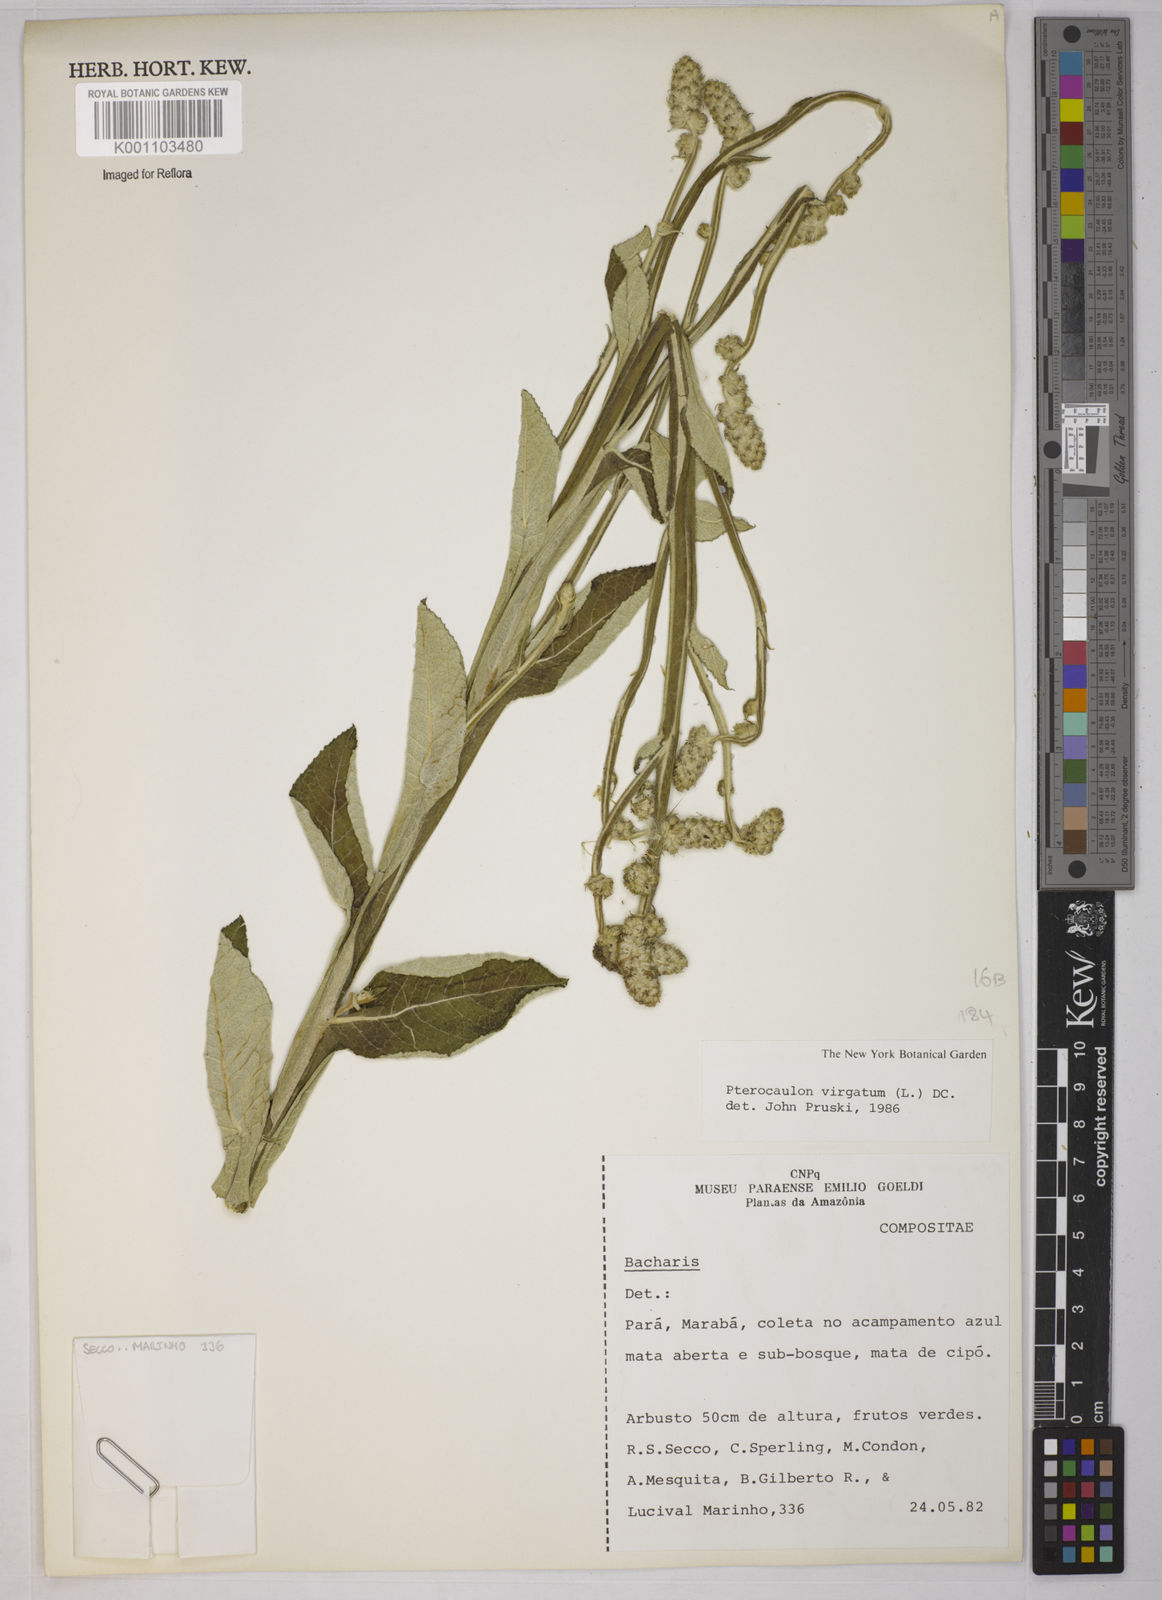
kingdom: Plantae
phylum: Tracheophyta
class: Magnoliopsida
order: Asterales
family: Asteraceae
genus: Pterocaulon
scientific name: Pterocaulon virgatum
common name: Wand blackroot
